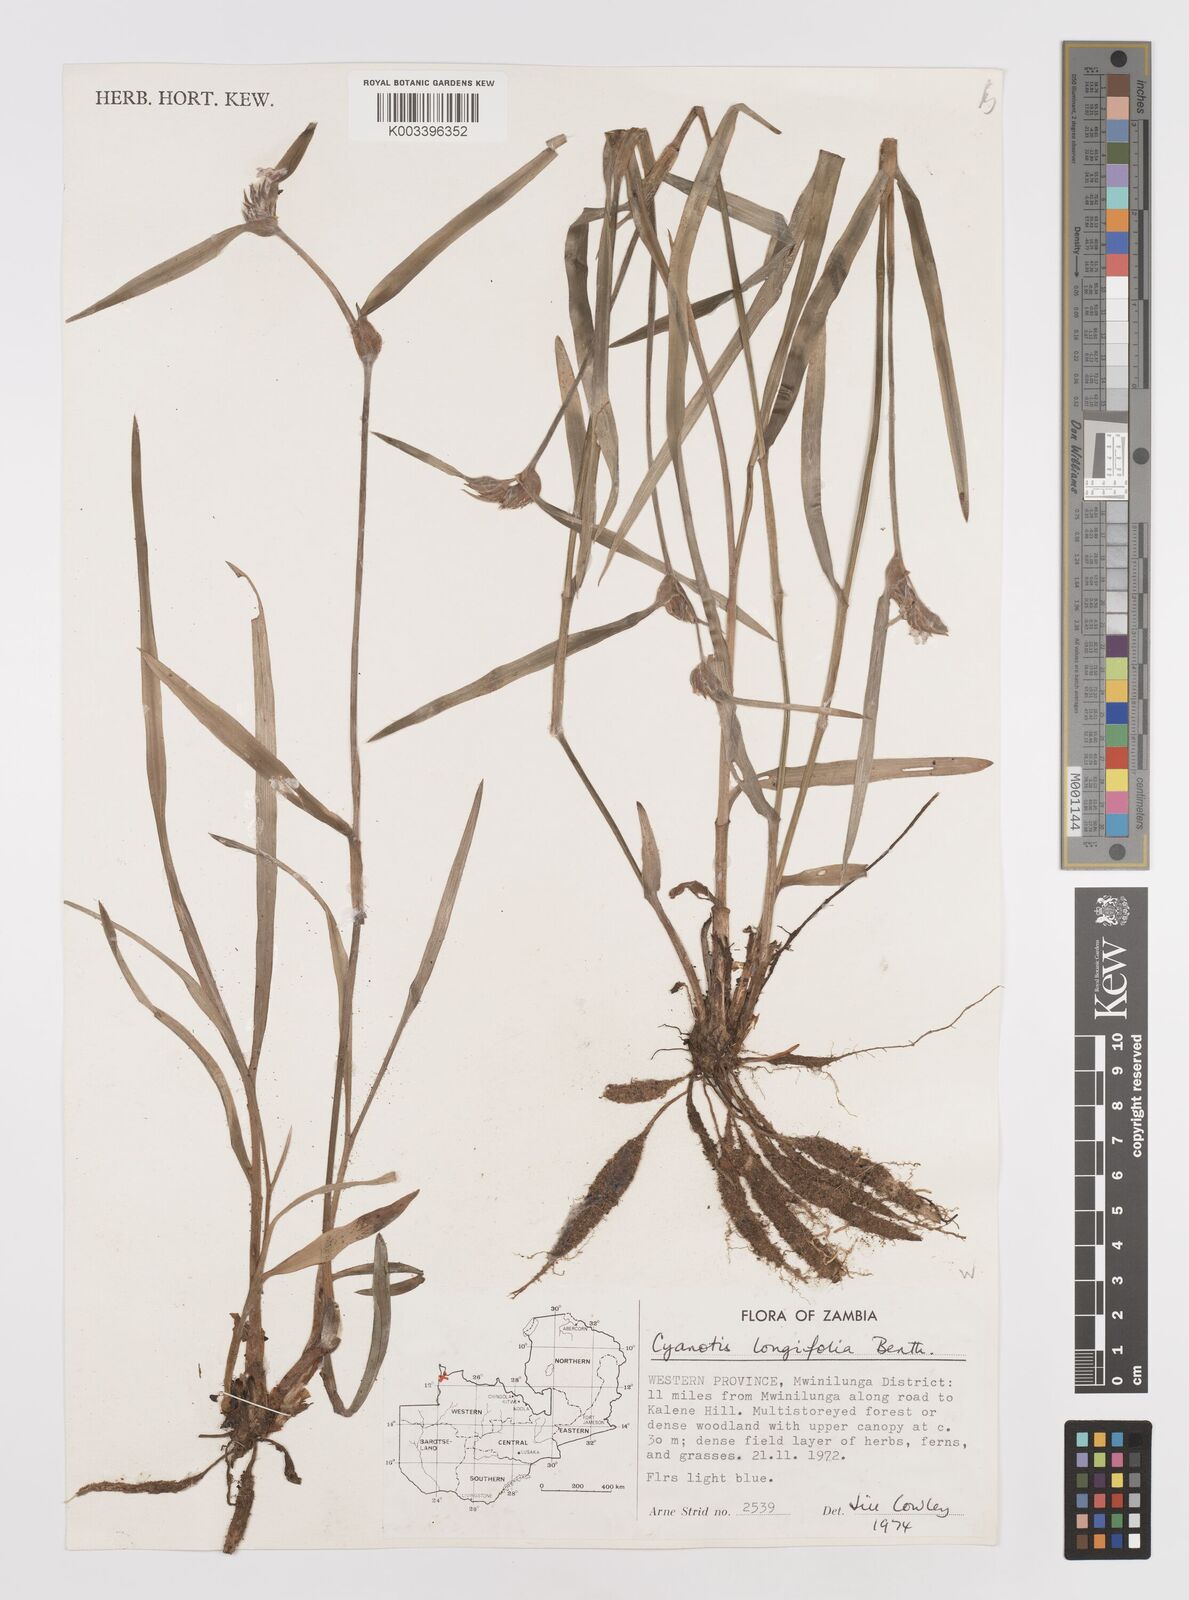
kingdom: Plantae
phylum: Tracheophyta
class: Liliopsida
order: Commelinales
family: Commelinaceae
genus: Cyanotis
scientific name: Cyanotis longifolia
